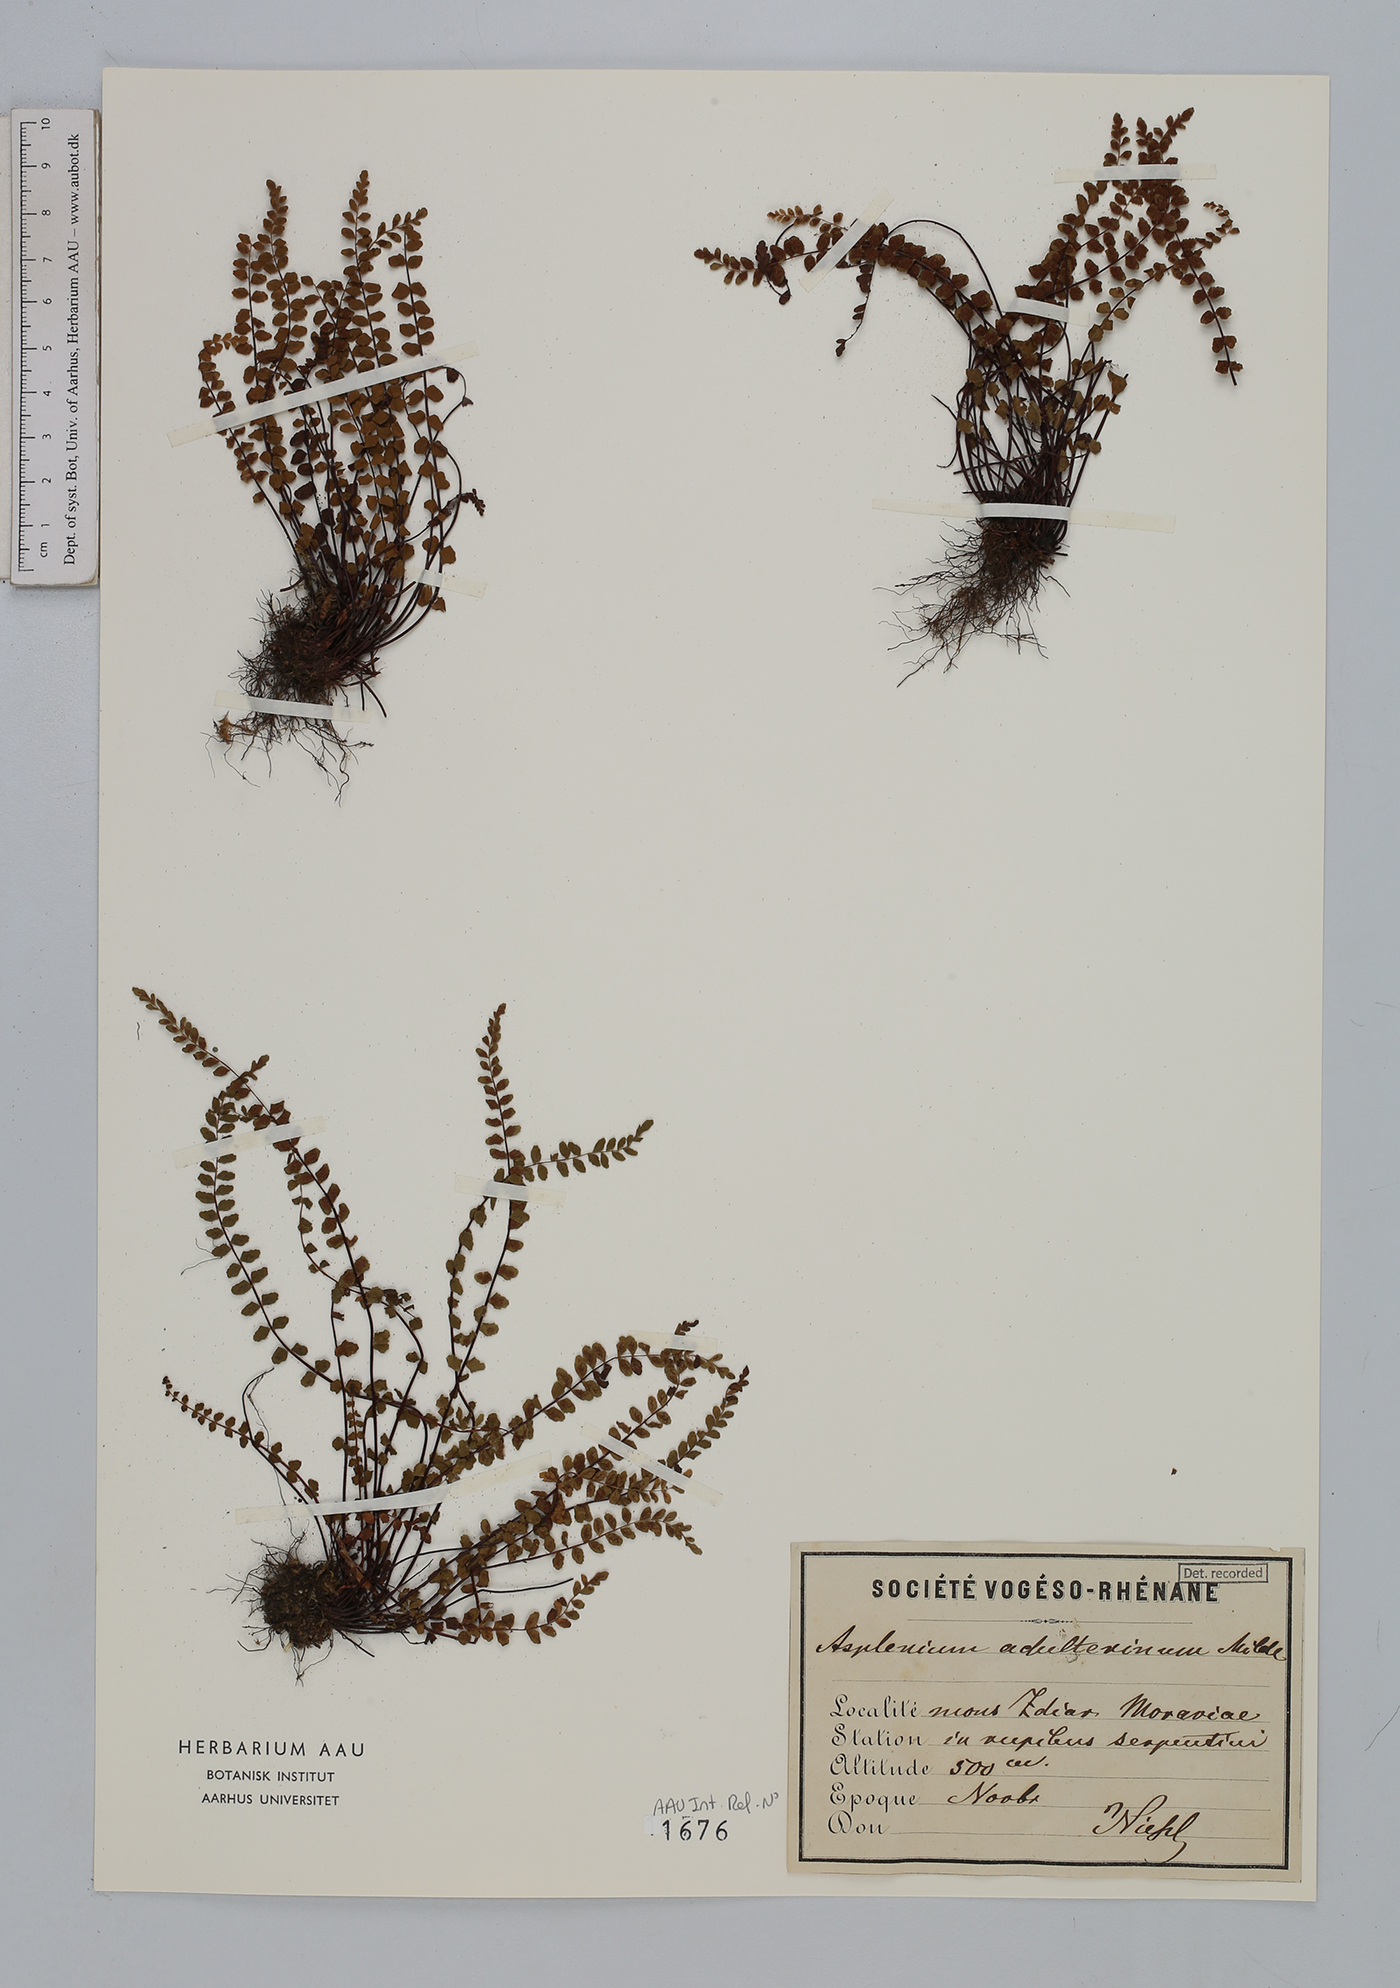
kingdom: Plantae
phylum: Tracheophyta
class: Polypodiopsida
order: Polypodiales
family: Aspleniaceae
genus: Asplenium
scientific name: Asplenium adulterinum
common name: Adulterated spleenwort
